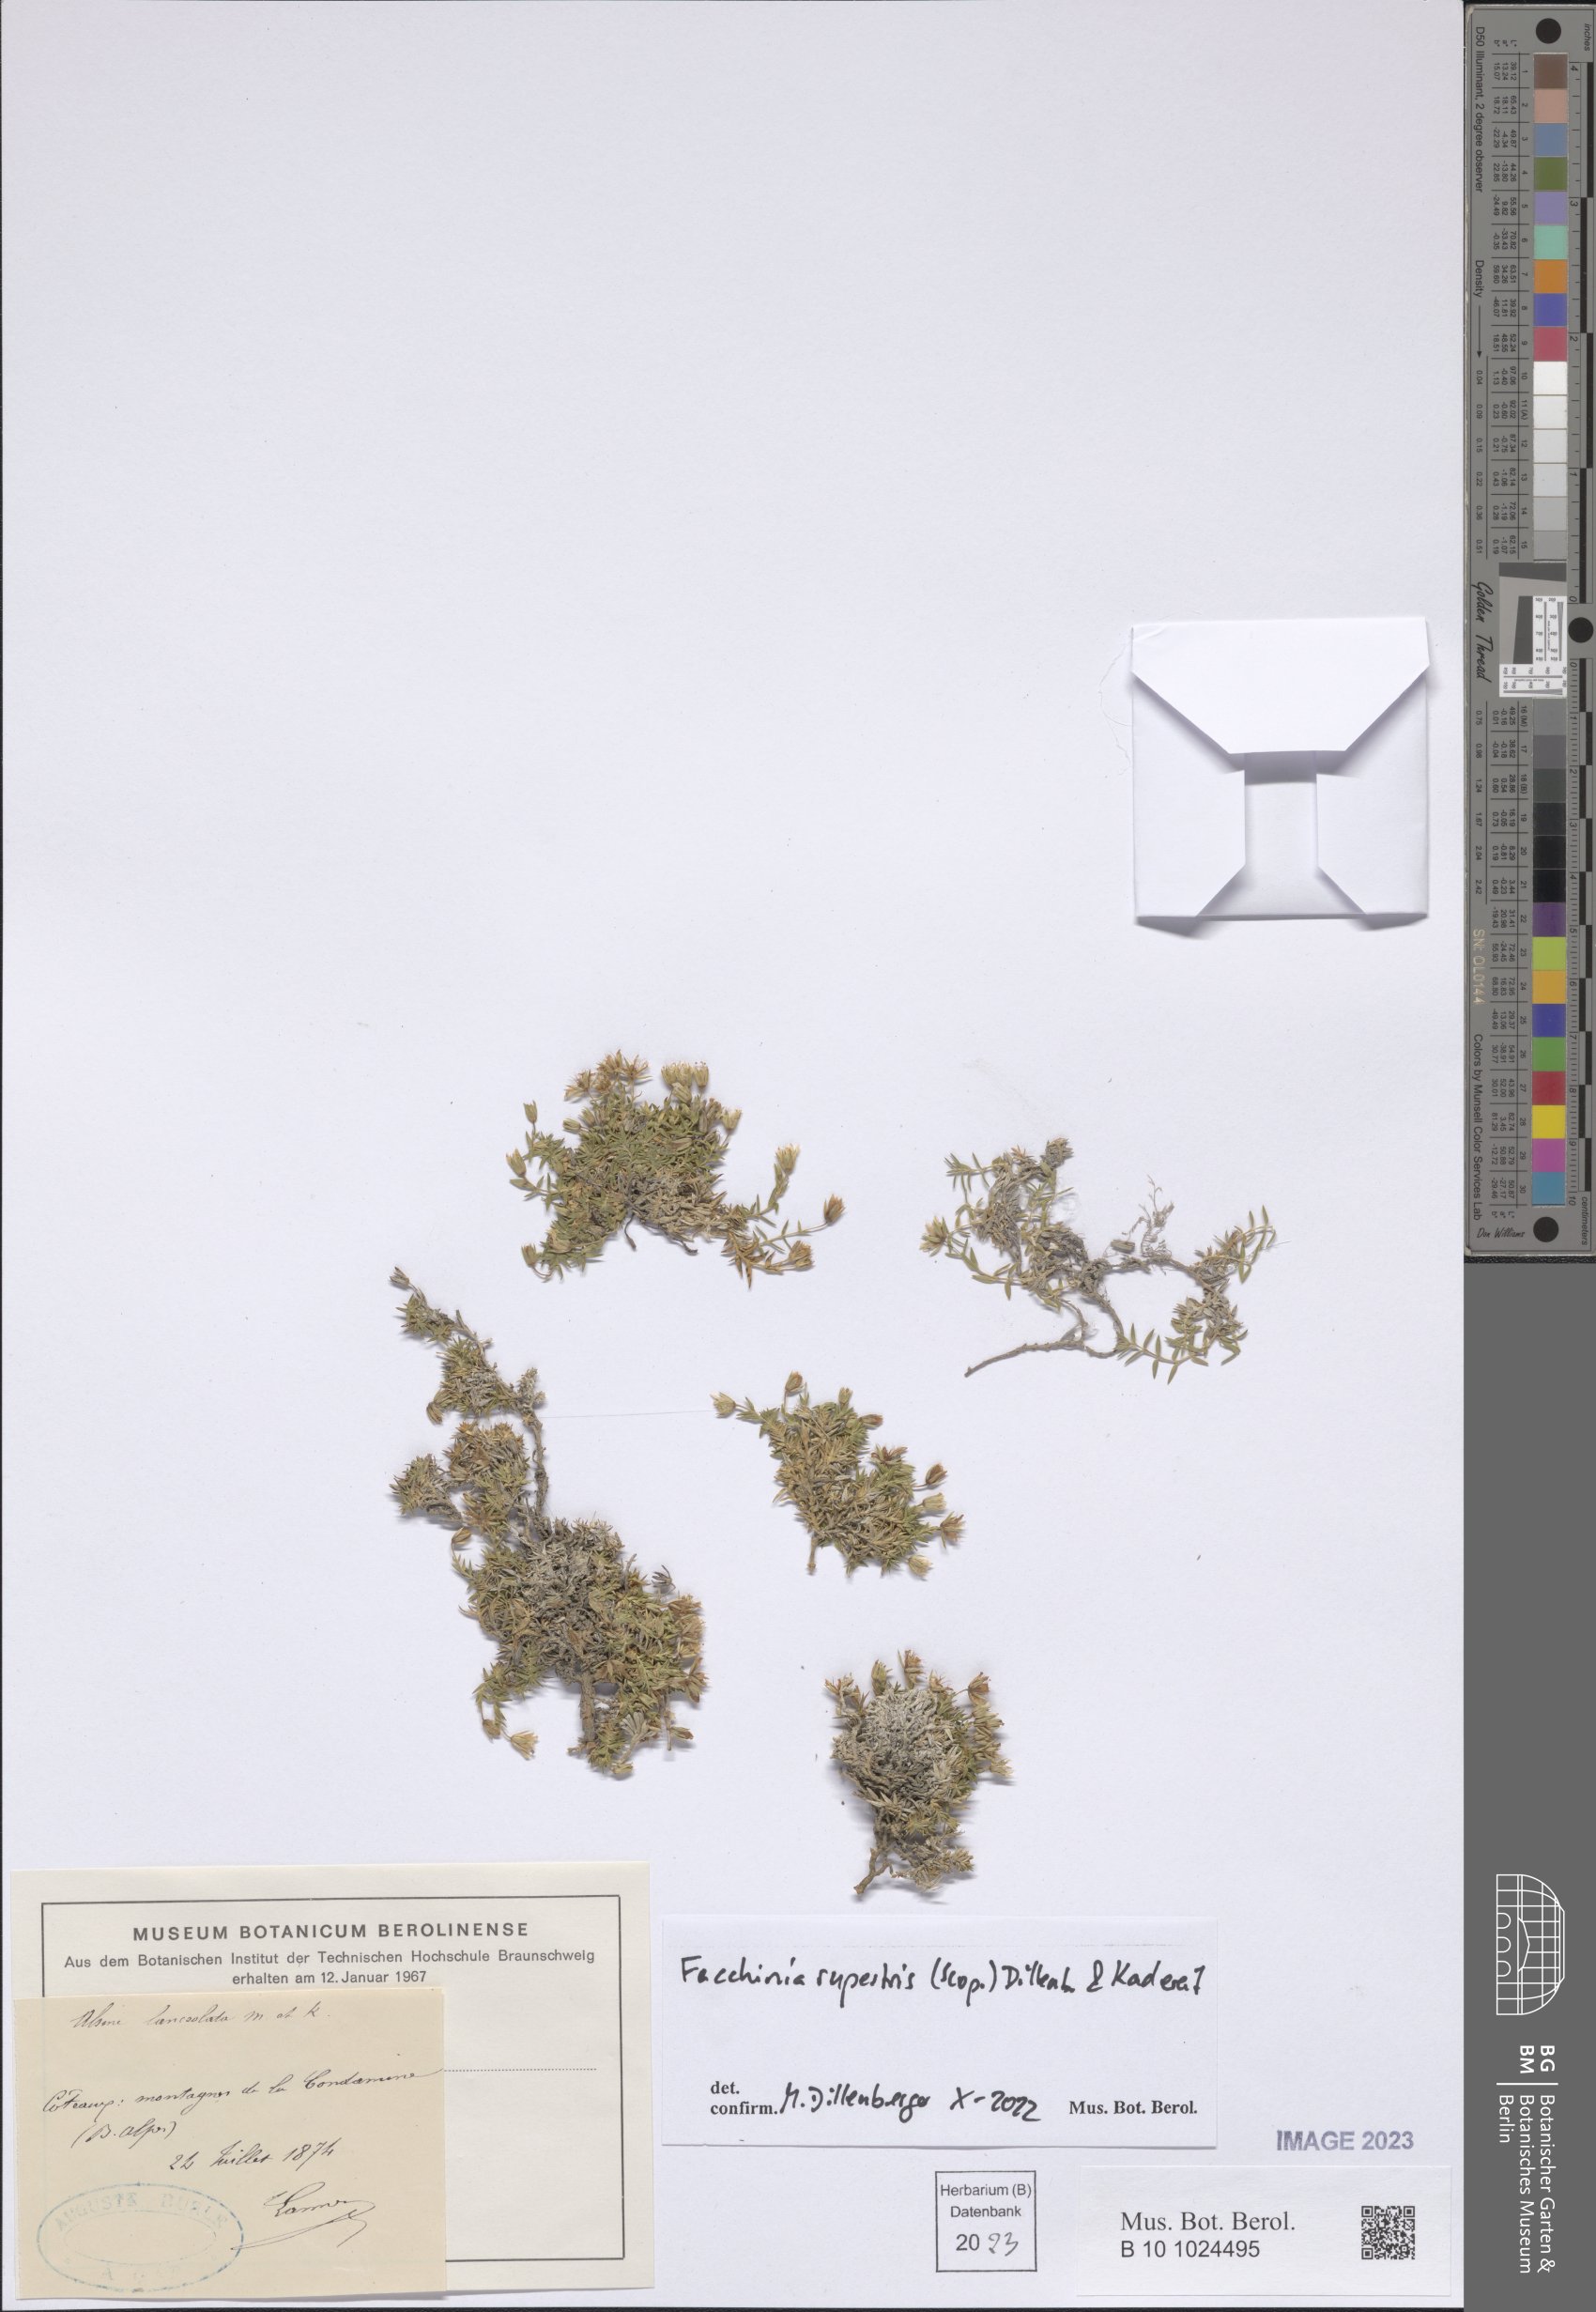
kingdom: Plantae
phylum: Tracheophyta
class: Magnoliopsida
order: Caryophyllales
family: Caryophyllaceae
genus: Facchinia
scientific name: Facchinia rupestris
